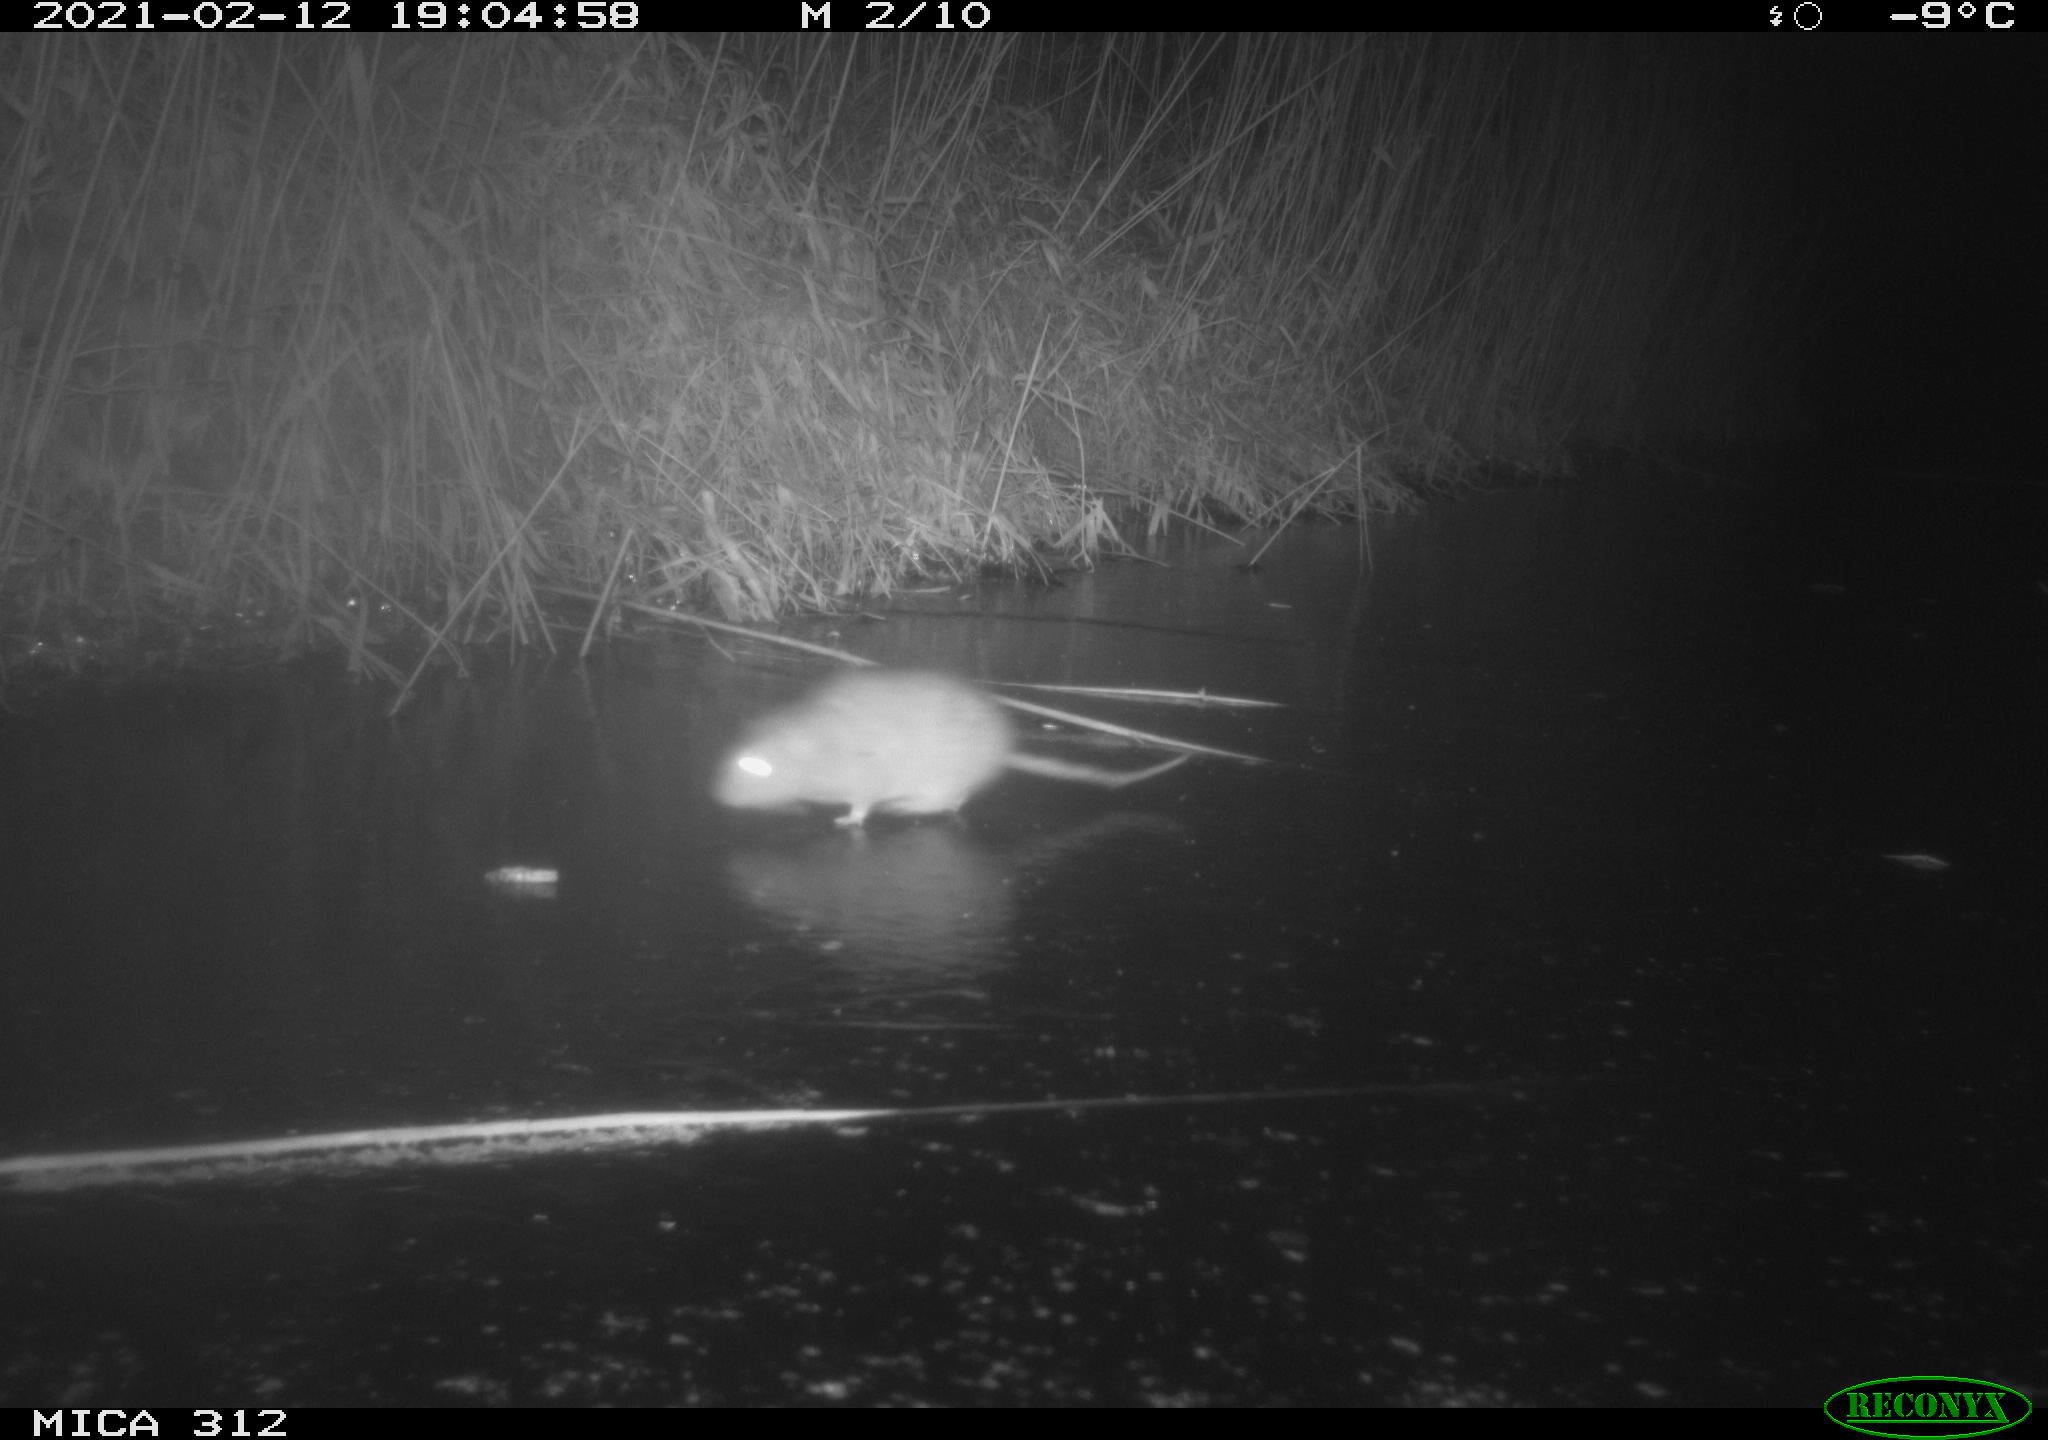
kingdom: Animalia
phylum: Chordata
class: Mammalia
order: Rodentia
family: Muridae
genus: Rattus
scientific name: Rattus norvegicus
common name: Brown rat
